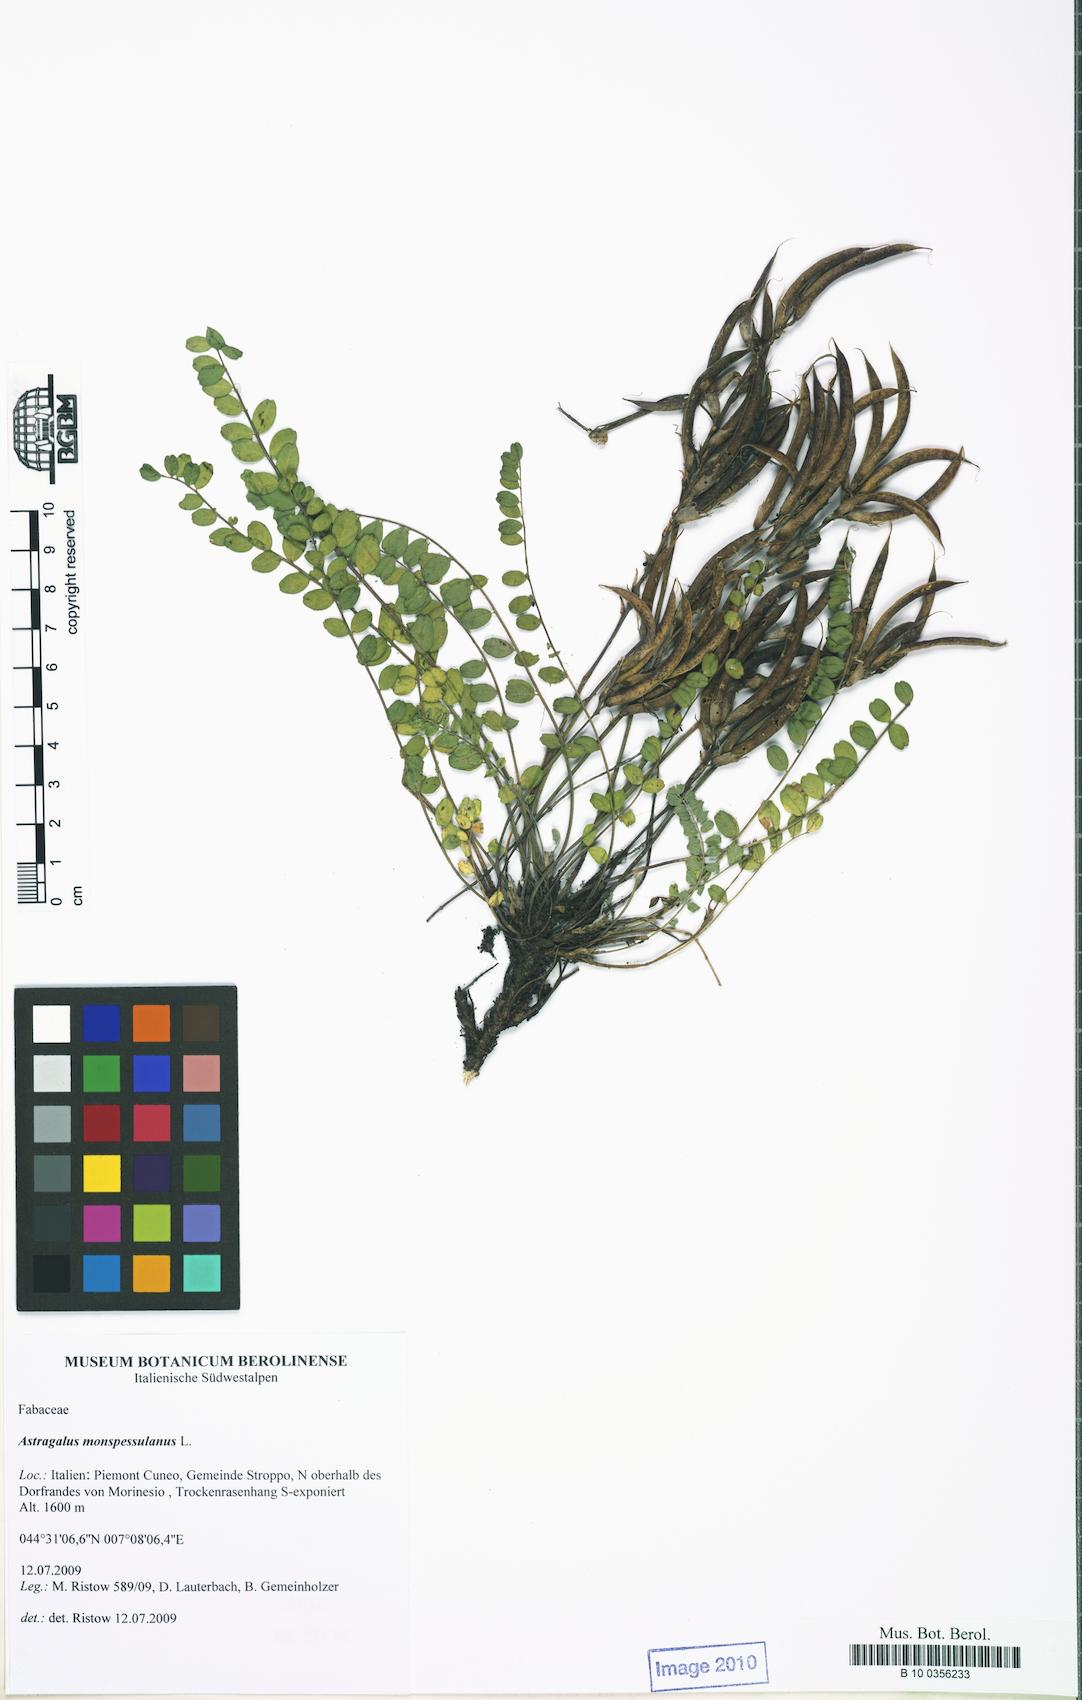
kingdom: Plantae
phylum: Tracheophyta
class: Magnoliopsida
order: Fabales
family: Fabaceae
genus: Astragalus
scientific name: Astragalus monspessulanus
